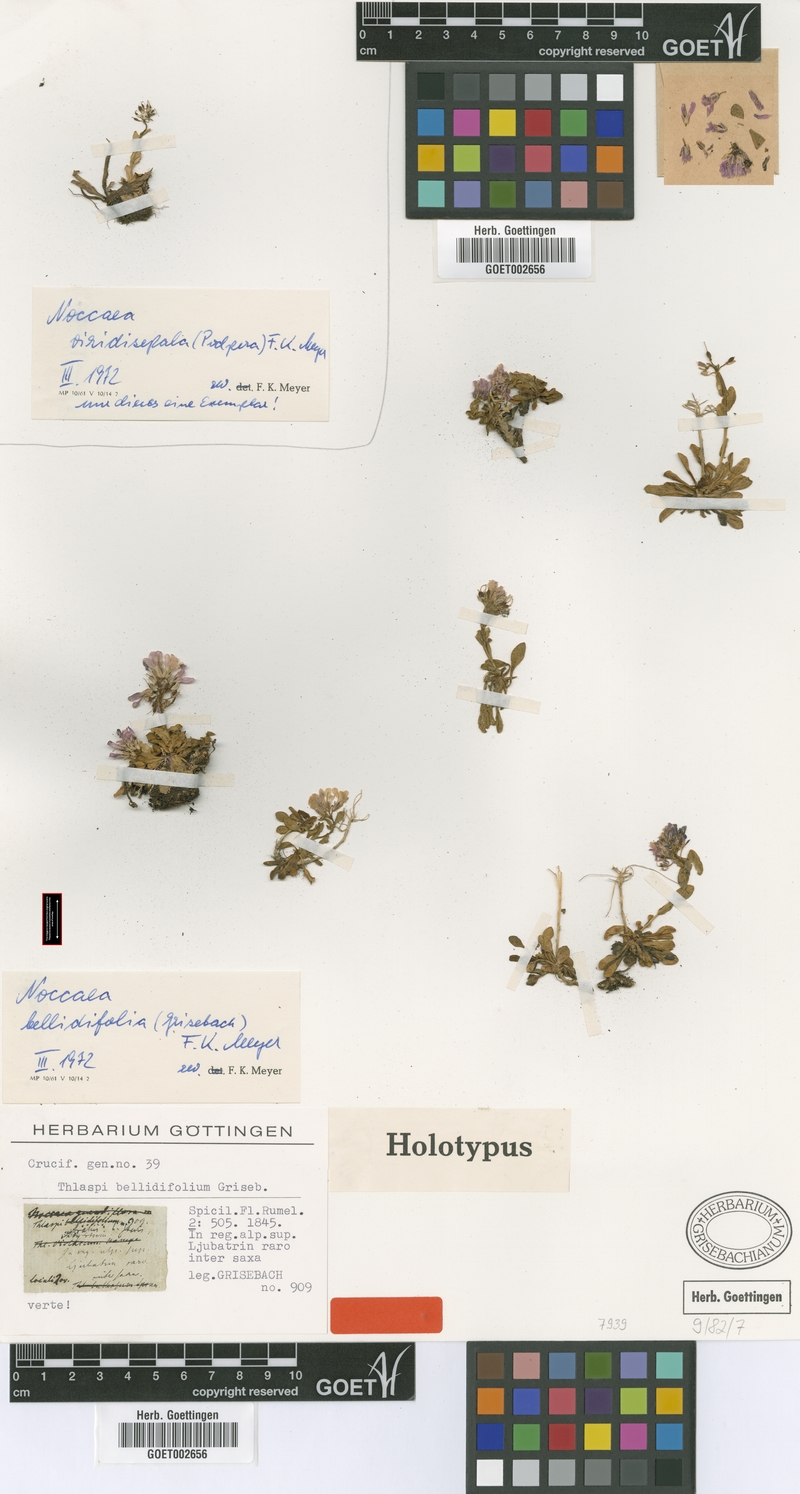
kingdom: Plantae
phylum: Tracheophyta
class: Magnoliopsida
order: Brassicales
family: Brassicaceae
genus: Noccaea
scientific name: Noccaea bellidifolia
